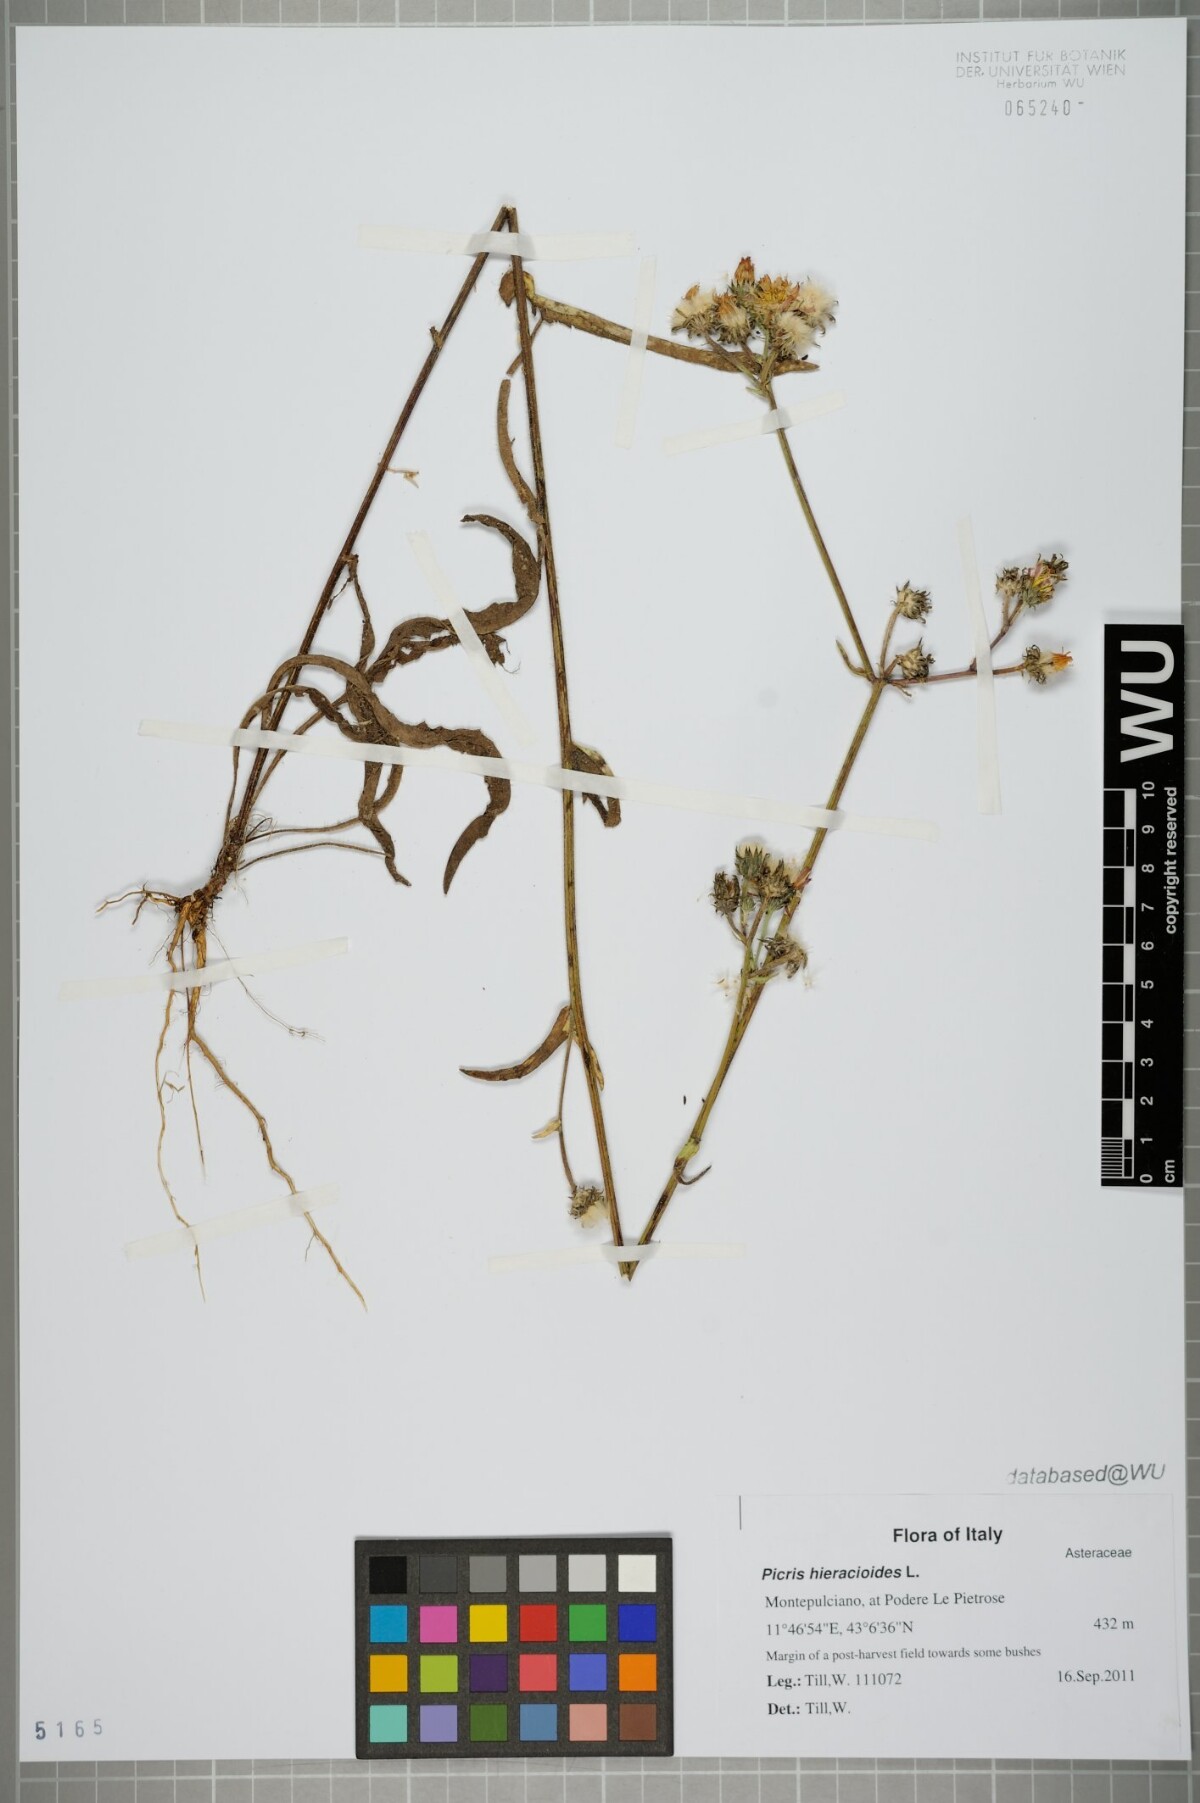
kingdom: Plantae
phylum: Tracheophyta
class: Magnoliopsida
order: Asterales
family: Asteraceae
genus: Picris
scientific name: Picris hieracioides
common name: Hawkweed oxtongue
